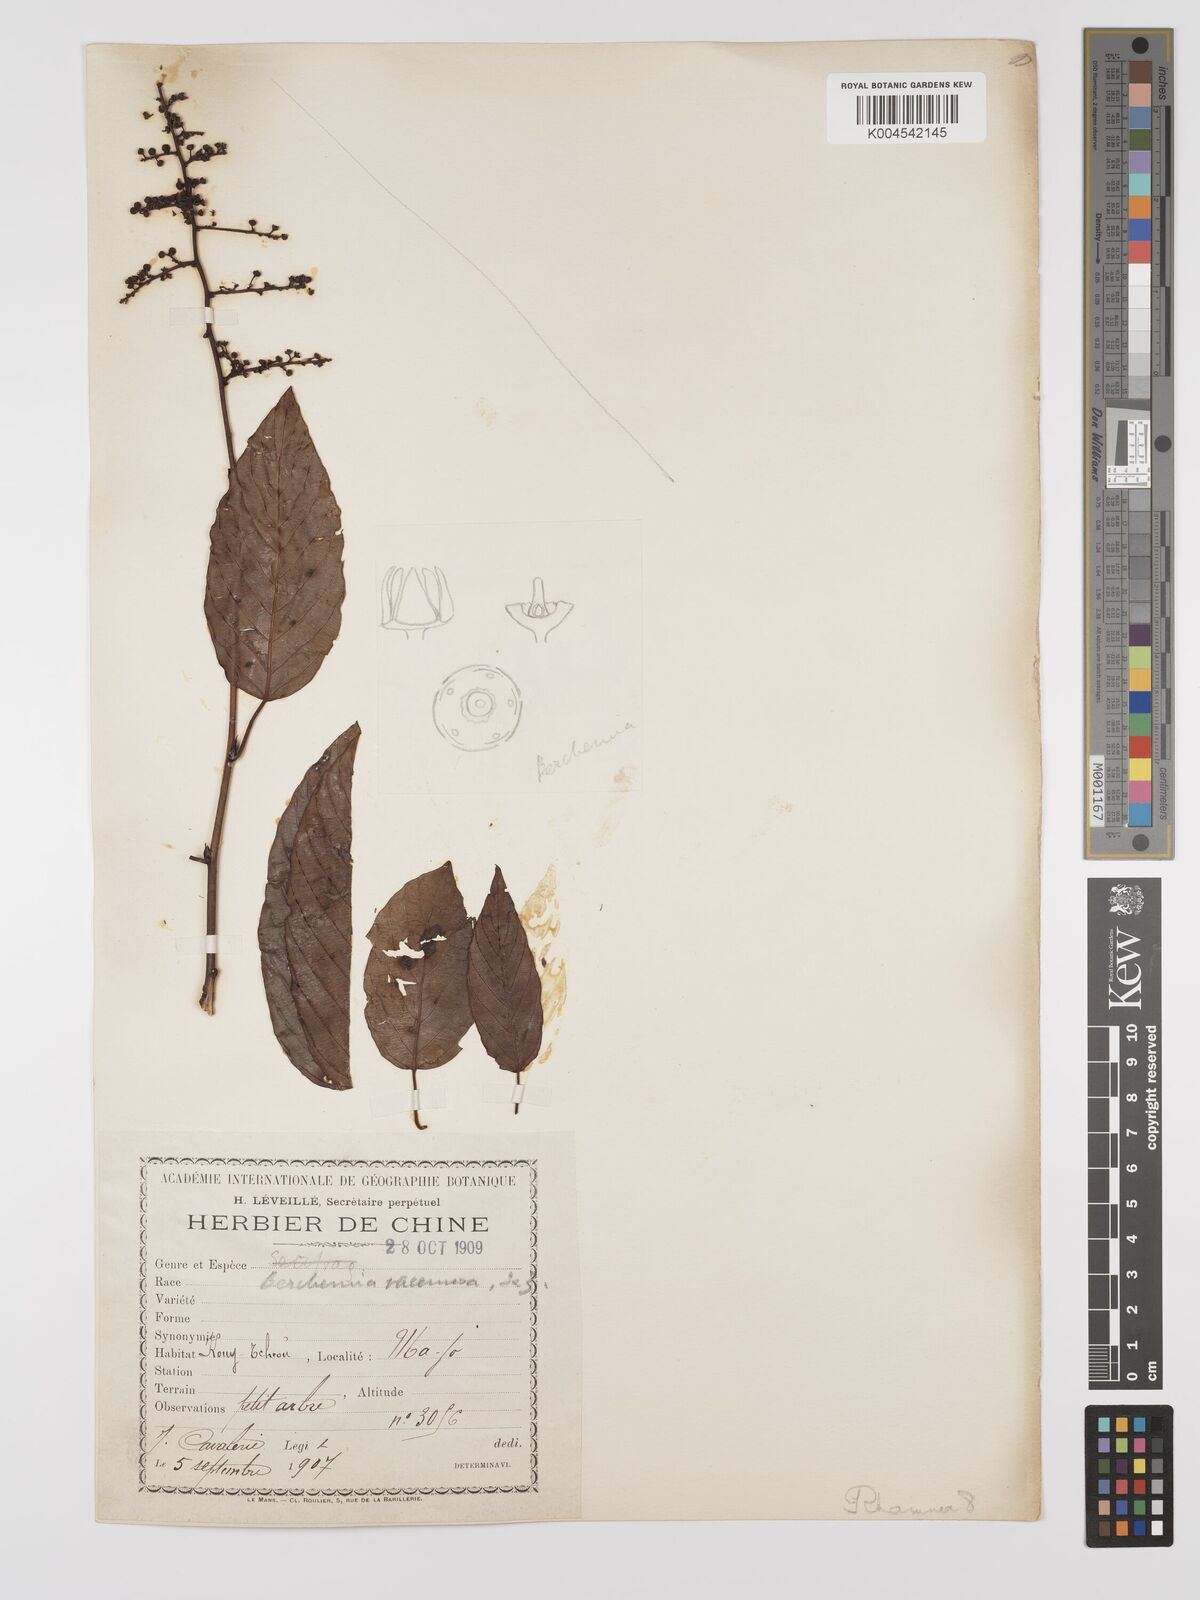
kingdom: Plantae
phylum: Tracheophyta
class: Magnoliopsida
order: Rosales
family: Rhamnaceae
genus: Berchemia
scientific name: Berchemia floribunda
